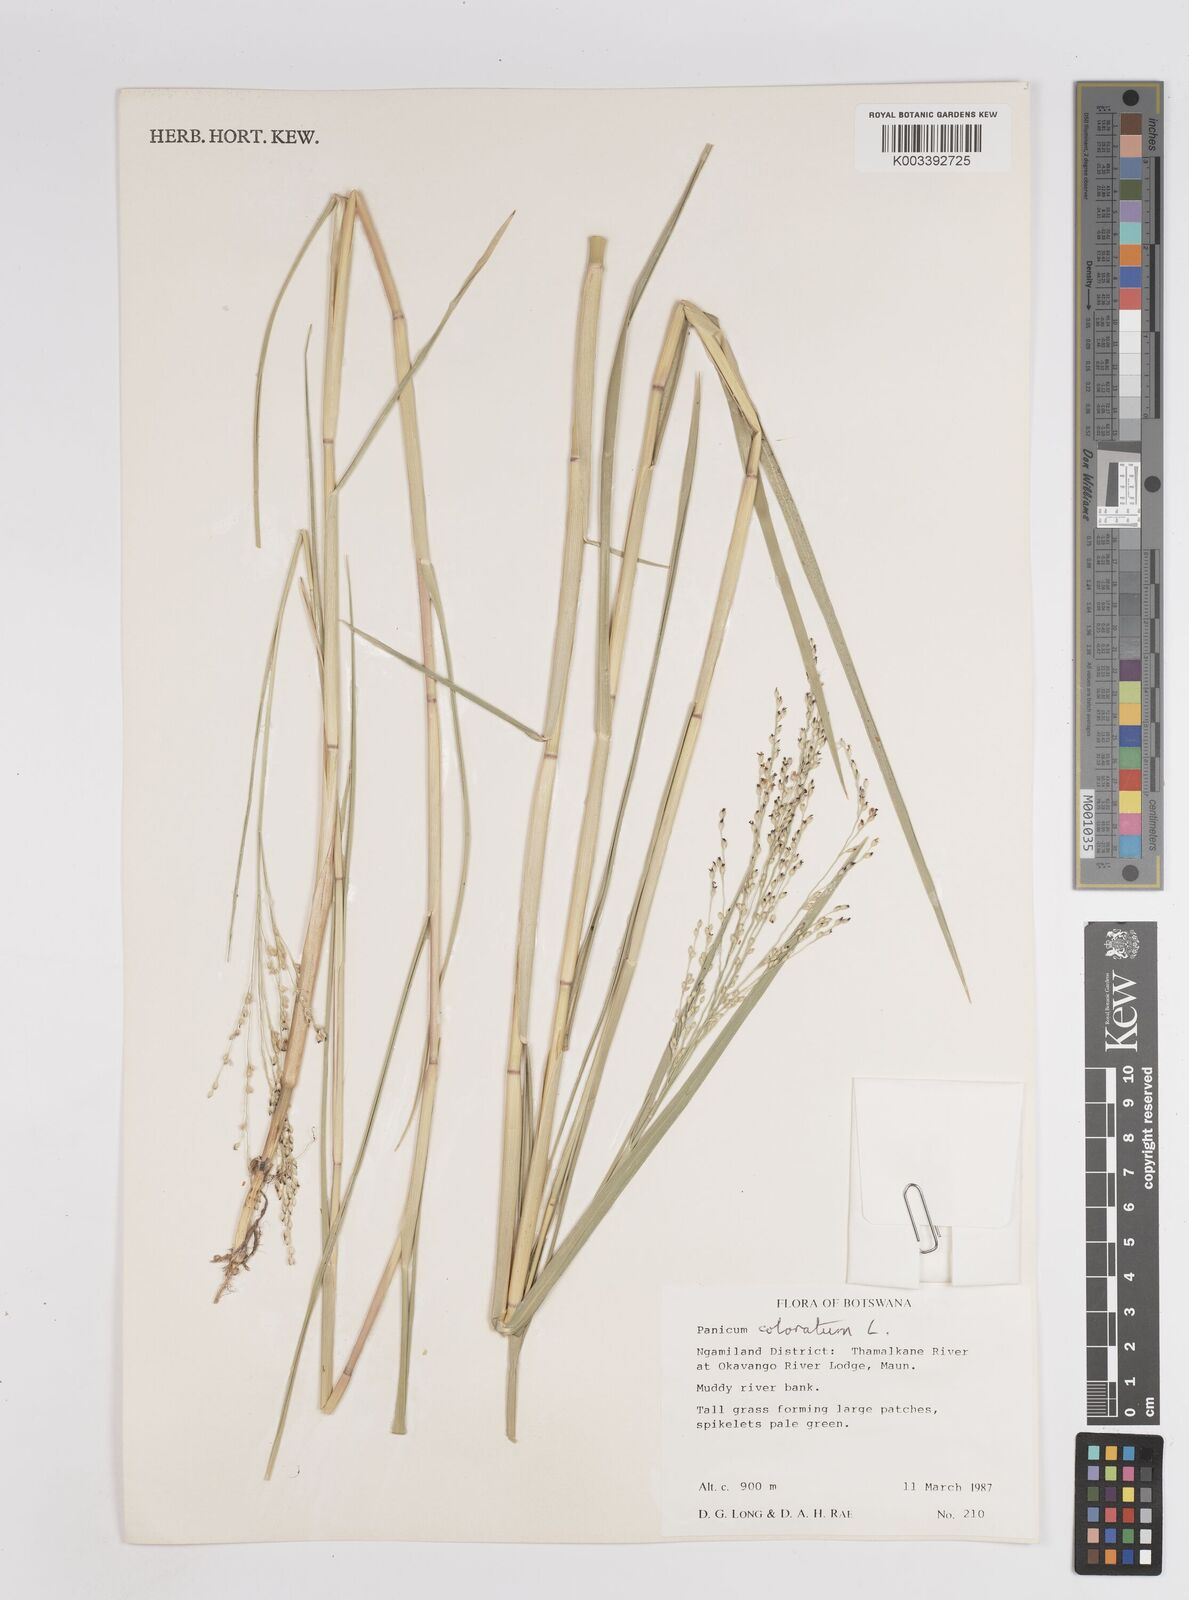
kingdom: Plantae
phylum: Tracheophyta
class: Liliopsida
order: Poales
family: Poaceae
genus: Panicum
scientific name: Panicum coloratum
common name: Kleingrass
